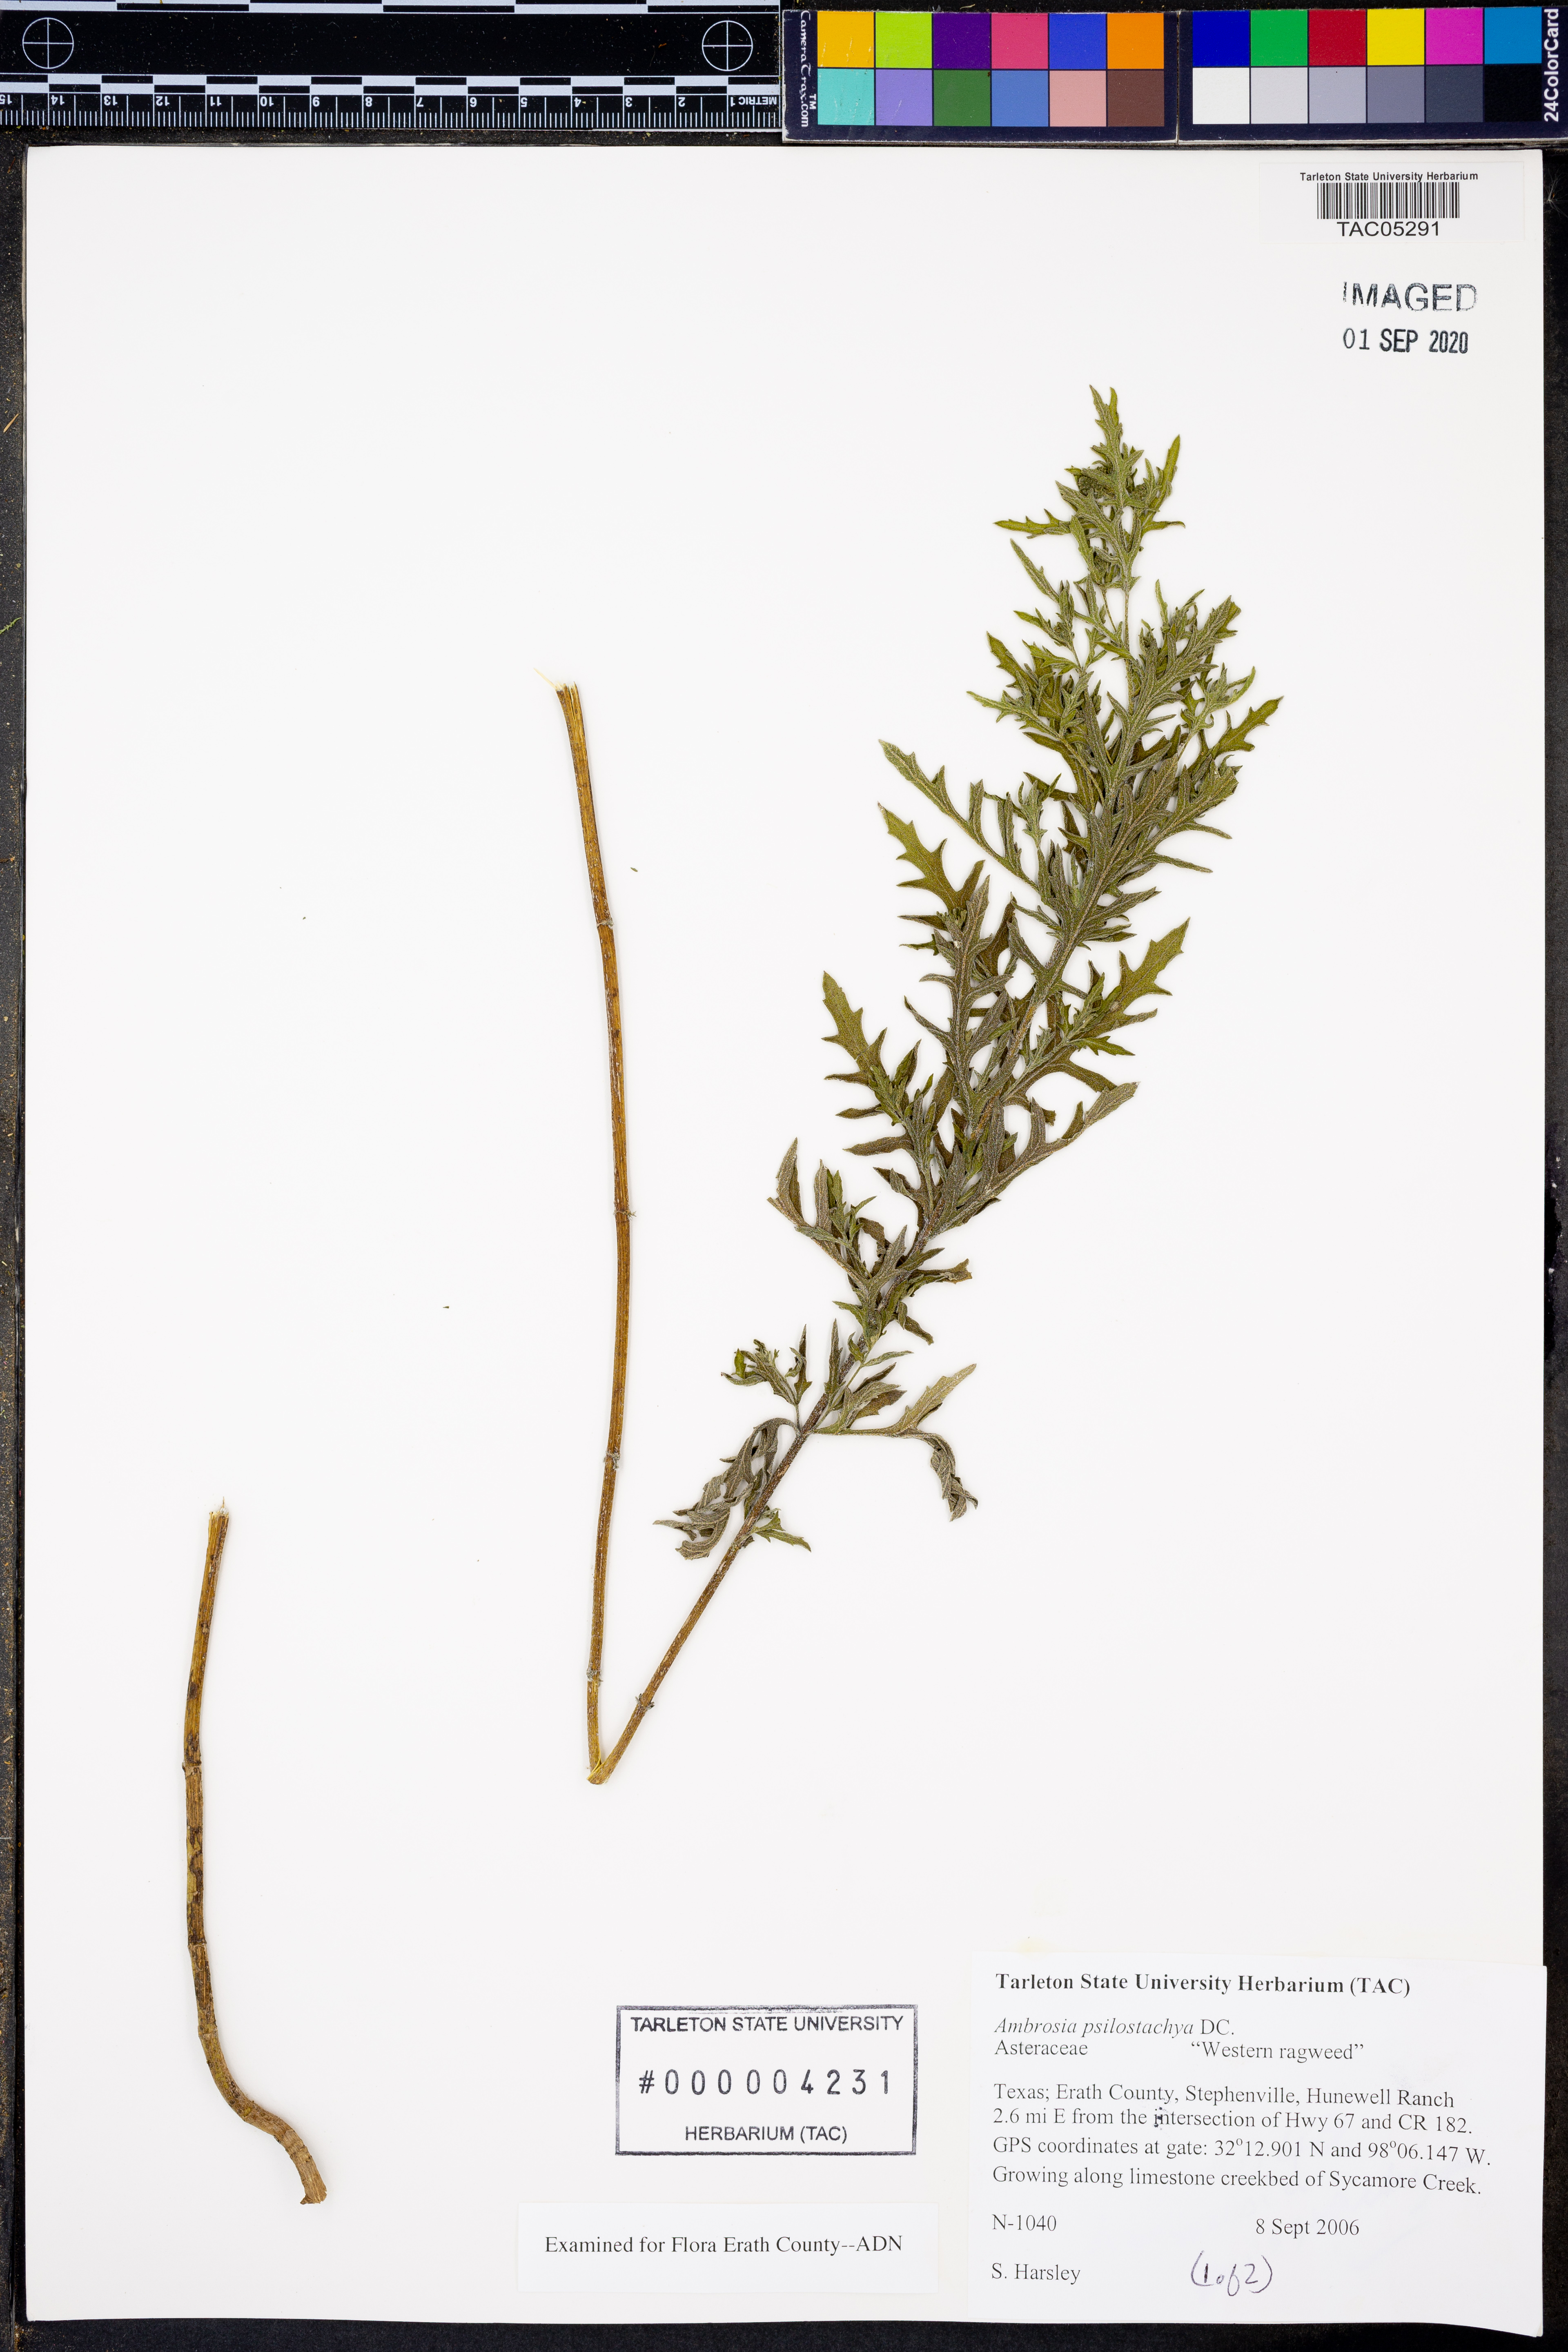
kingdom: Plantae
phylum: Tracheophyta
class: Magnoliopsida
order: Asterales
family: Asteraceae
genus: Ambrosia
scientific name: Ambrosia psilostachya
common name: Perennial ragweed
